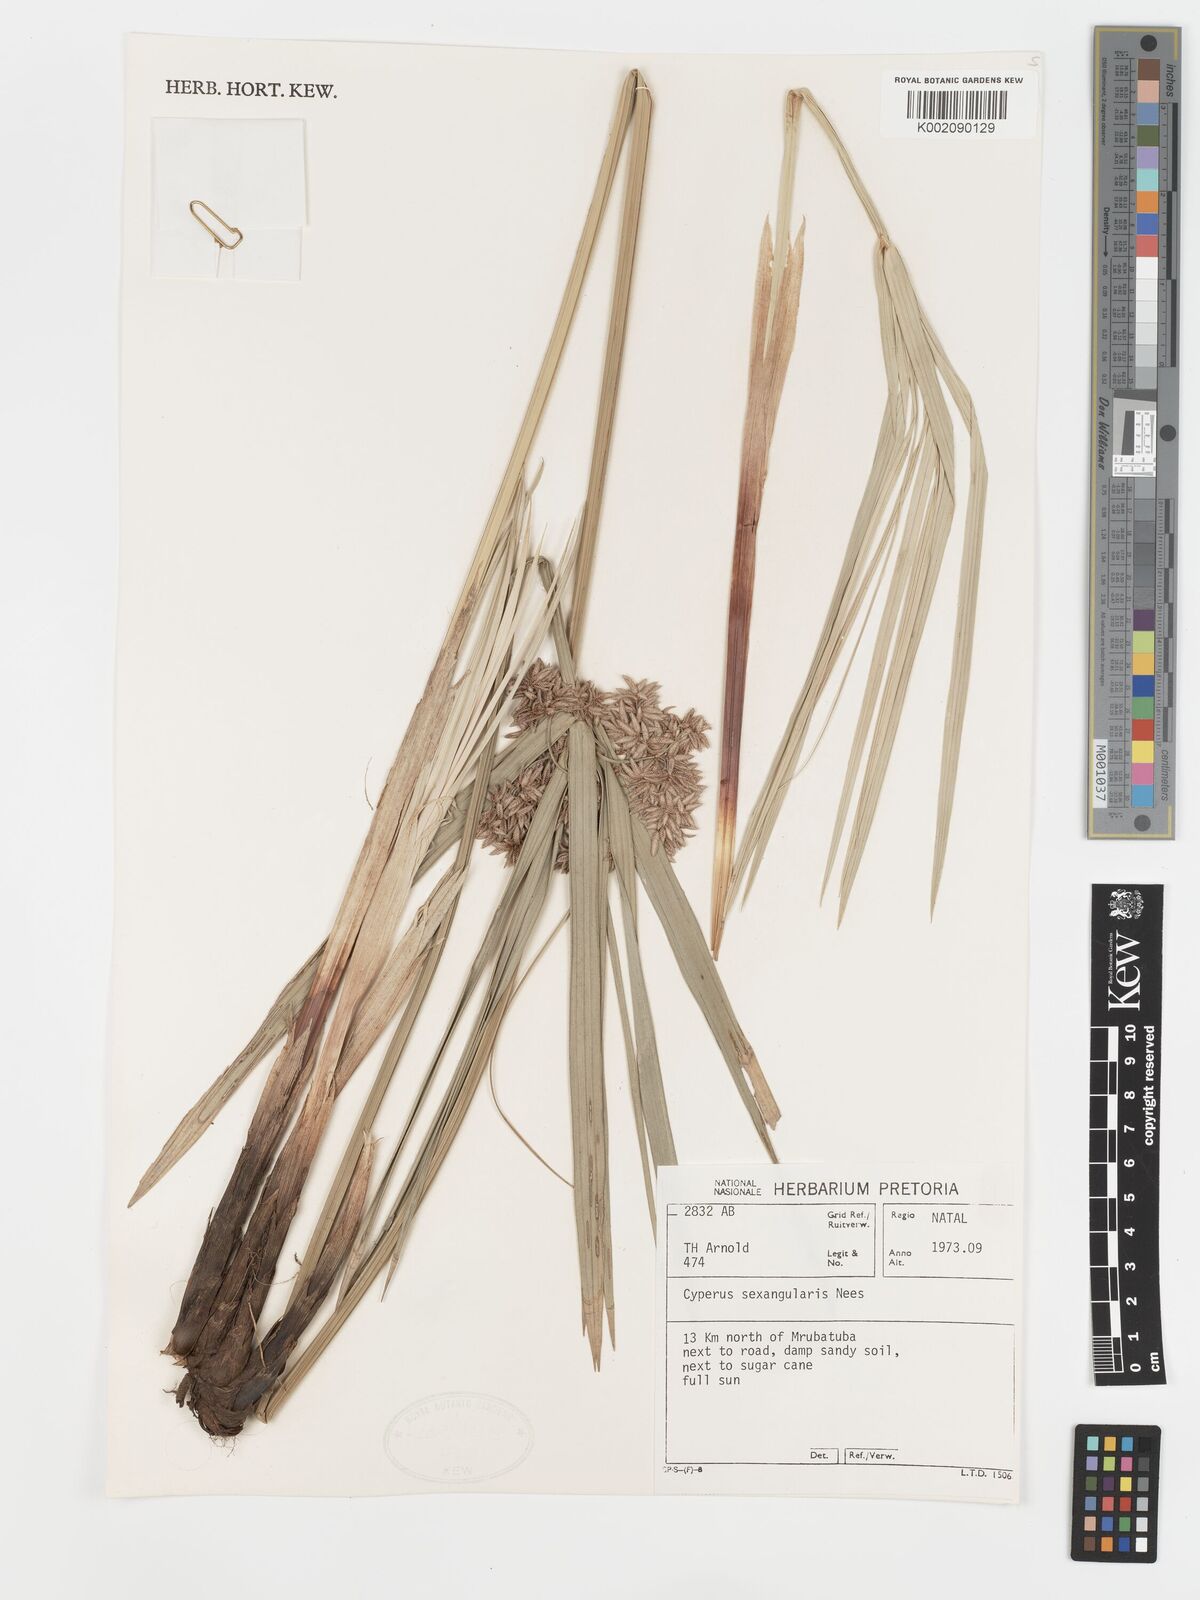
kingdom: Plantae
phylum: Tracheophyta
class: Liliopsida
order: Poales
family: Cyperaceae
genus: Cyperus
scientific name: Cyperus sexangularis
